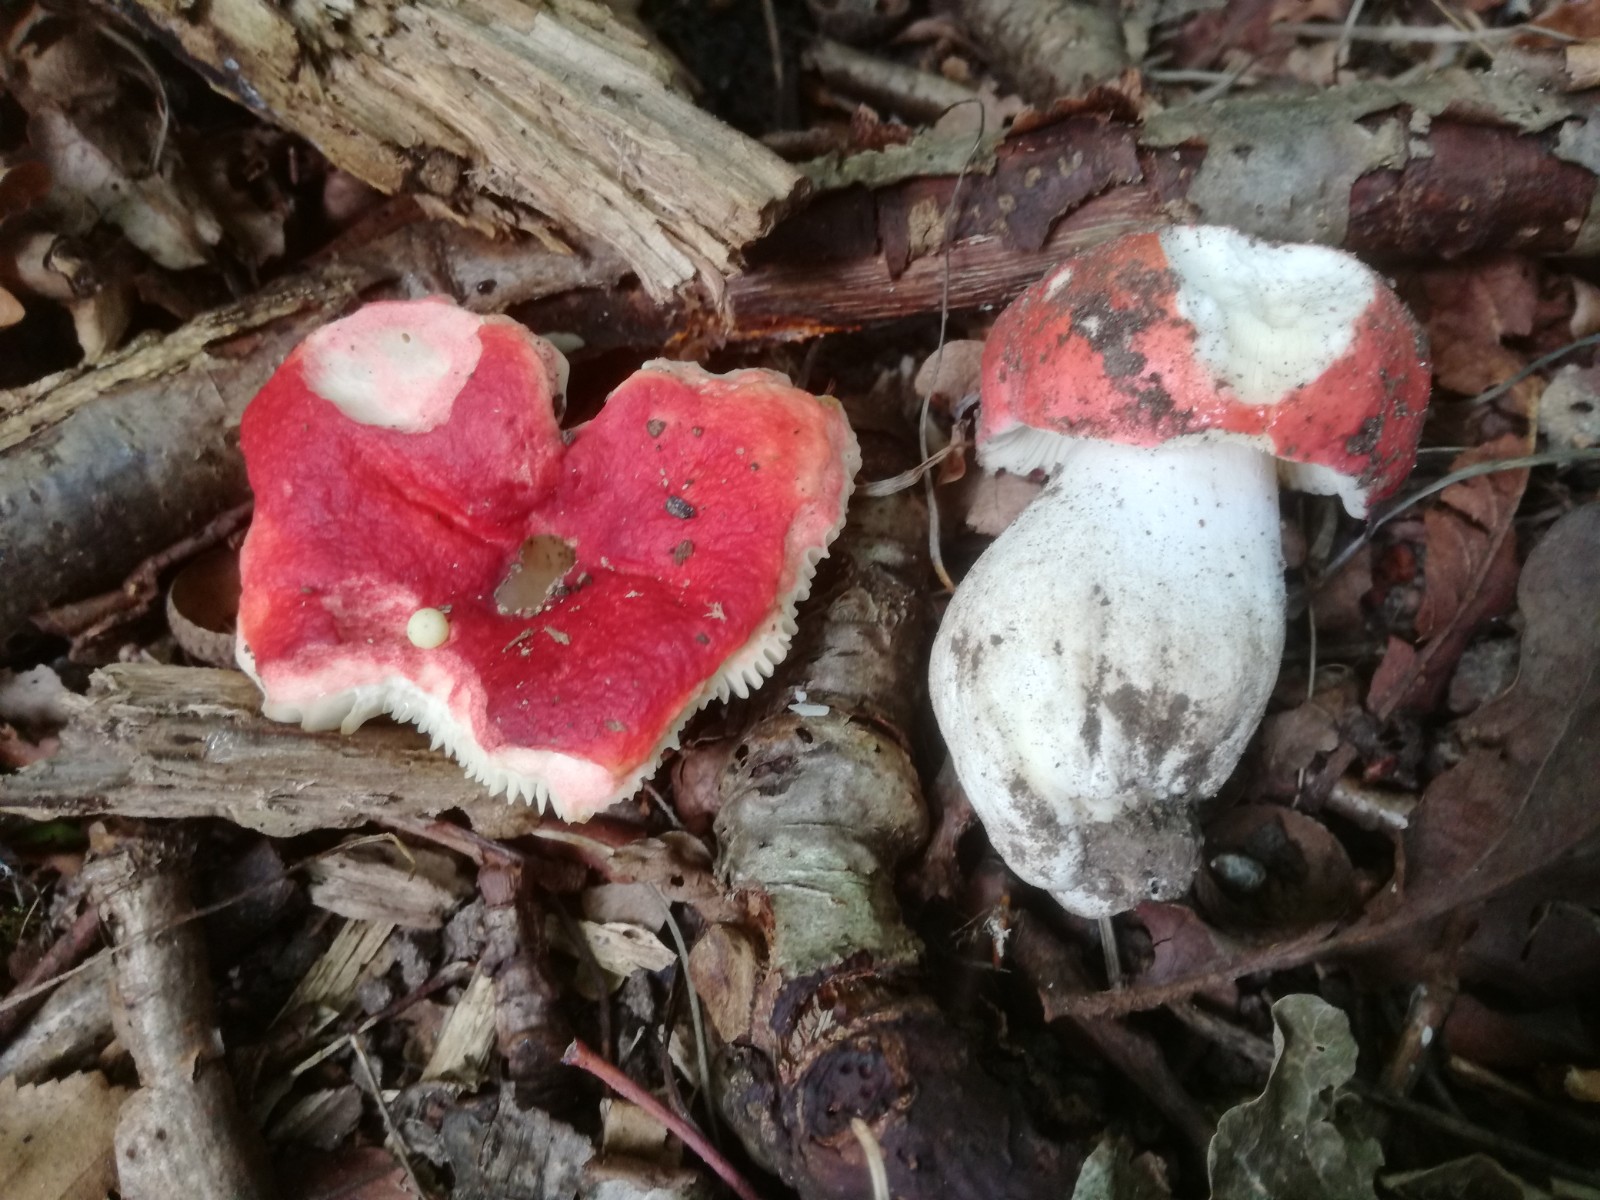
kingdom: Fungi
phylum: Basidiomycota
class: Agaricomycetes
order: Russulales
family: Russulaceae
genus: Russula
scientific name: Russula pseudointegra
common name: cinnoberrød skørhat
